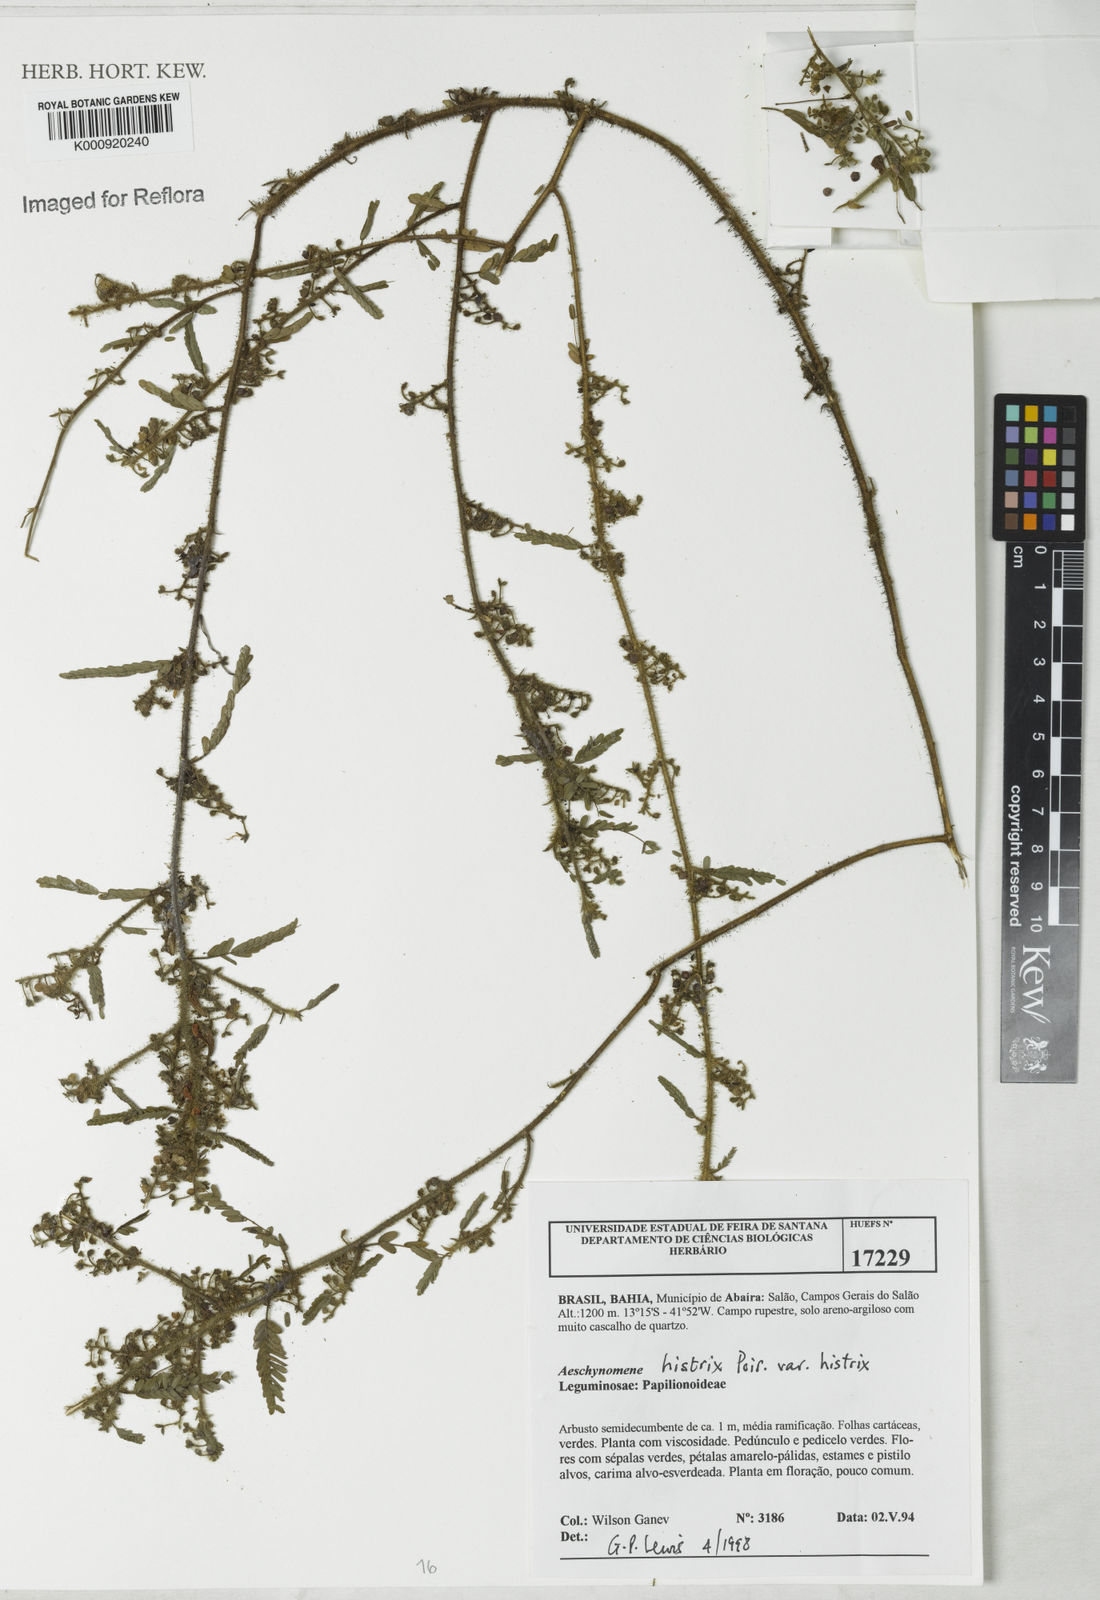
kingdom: Plantae
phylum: Tracheophyta
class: Magnoliopsida
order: Fabales
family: Fabaceae
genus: Ctenodon
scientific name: Ctenodon histrix
